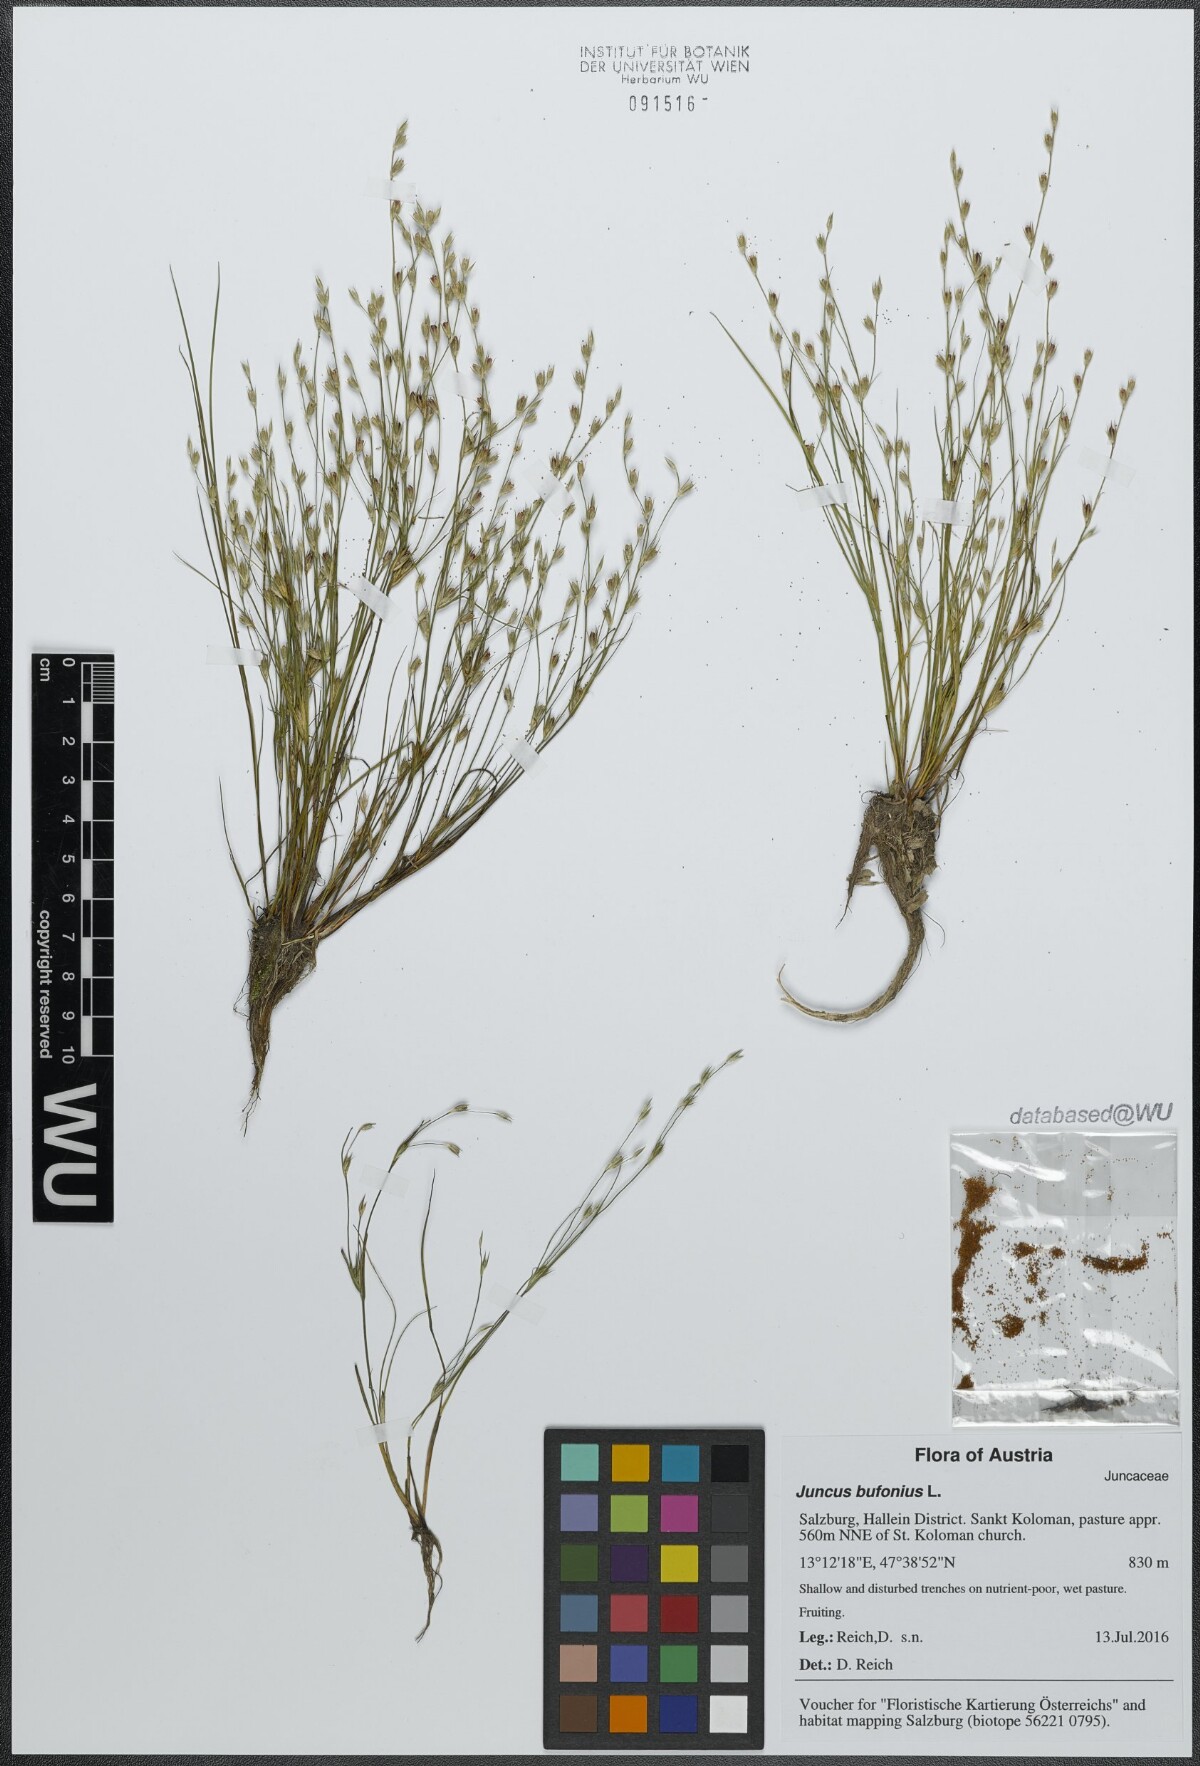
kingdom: Plantae
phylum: Tracheophyta
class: Liliopsida
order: Poales
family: Juncaceae
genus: Juncus
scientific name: Juncus bufonius
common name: Toad rush
